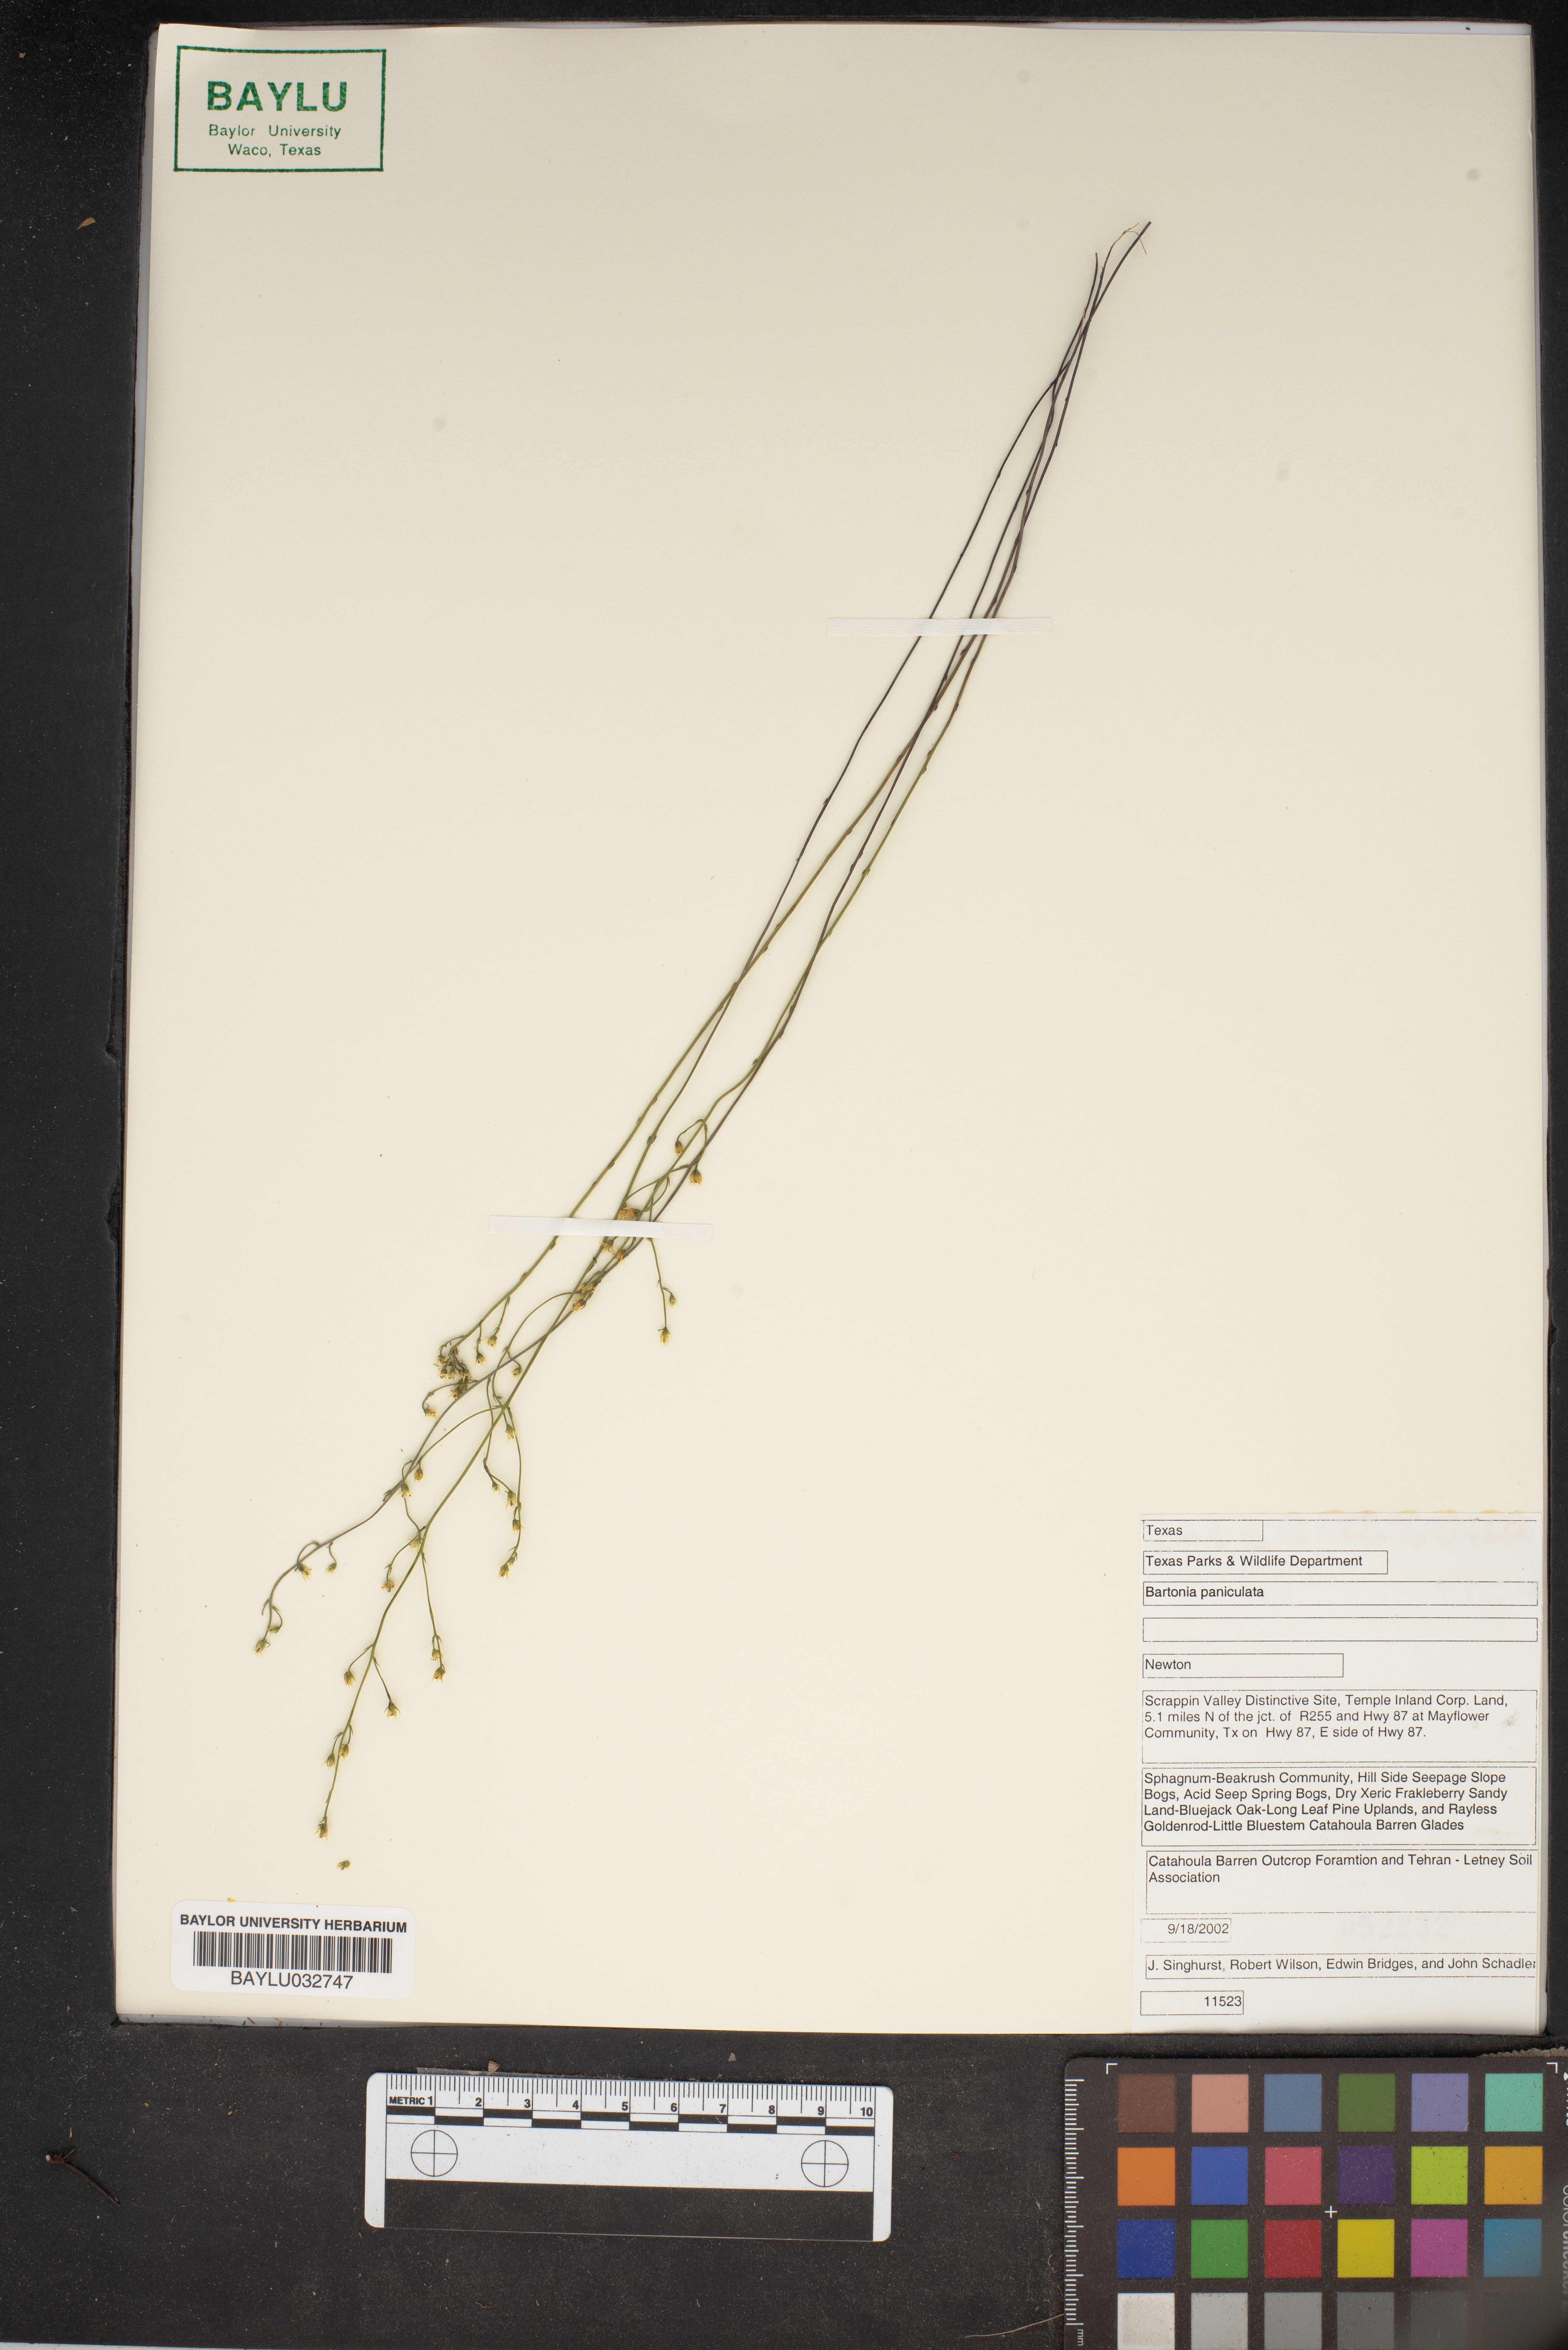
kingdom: Plantae
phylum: Tracheophyta
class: Magnoliopsida
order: Gentianales
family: Gentianaceae
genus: Bartonia
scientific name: Bartonia paniculata
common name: Branched bartonia
